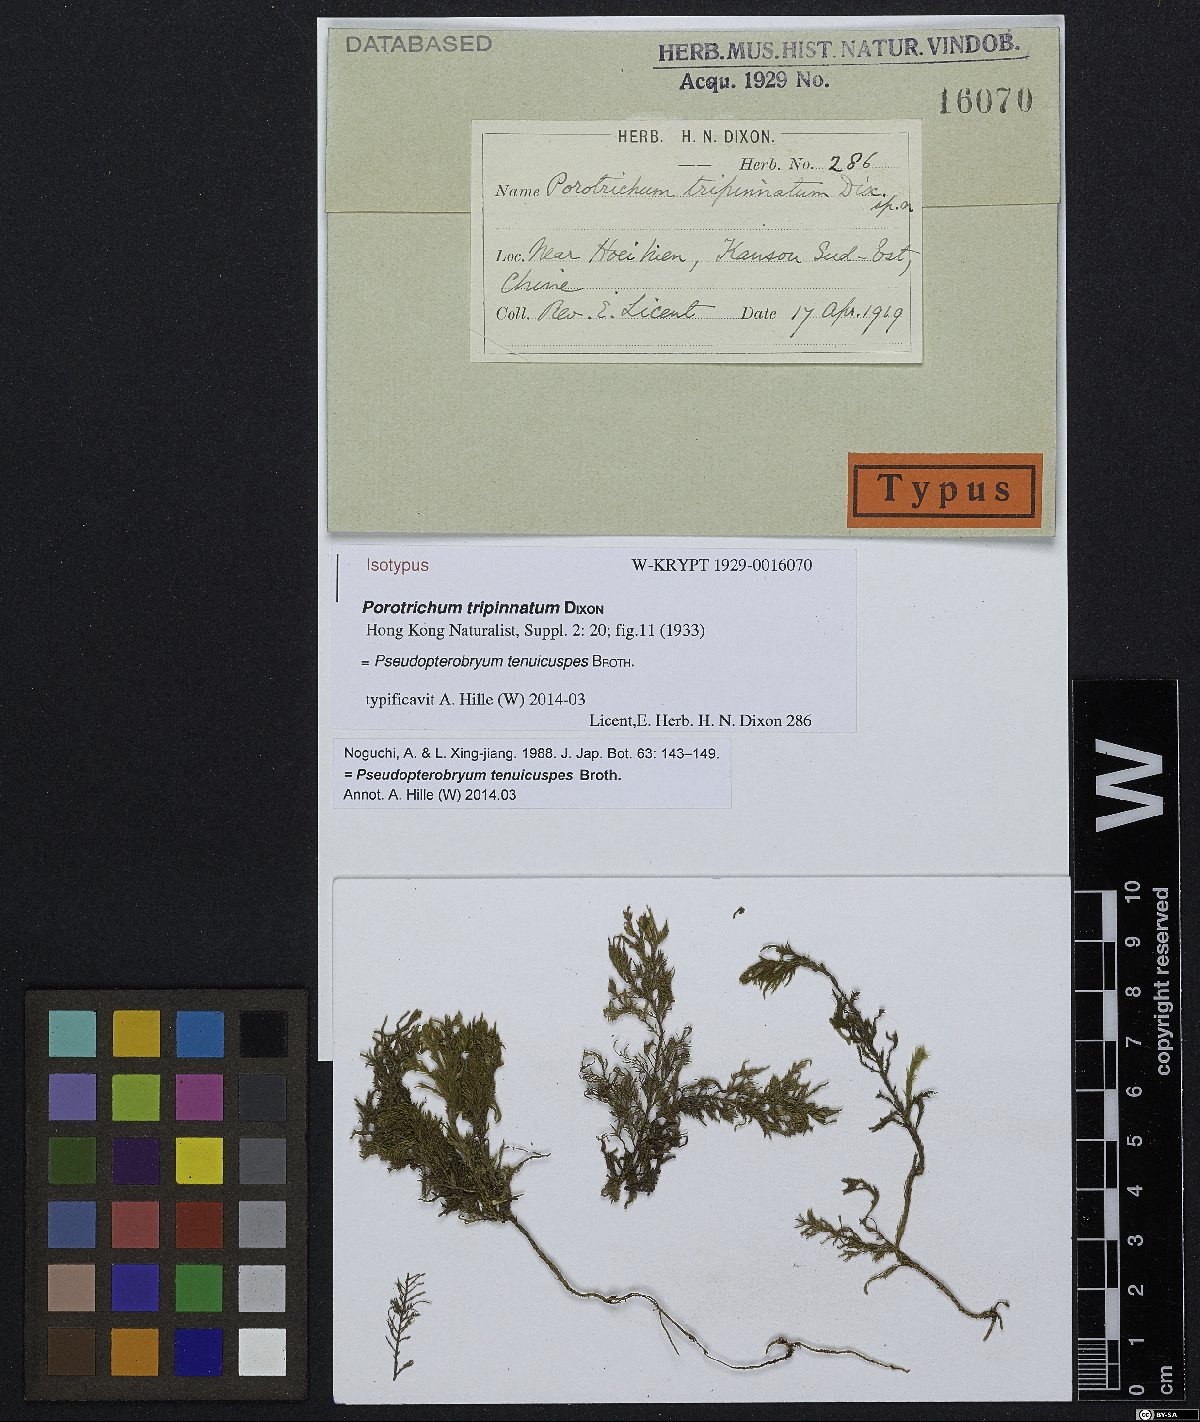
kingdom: Plantae
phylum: Bryophyta
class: Bryopsida
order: Hypnales
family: Neckeraceae
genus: Pseudopterobryum
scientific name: Pseudopterobryum tenuicuspis
